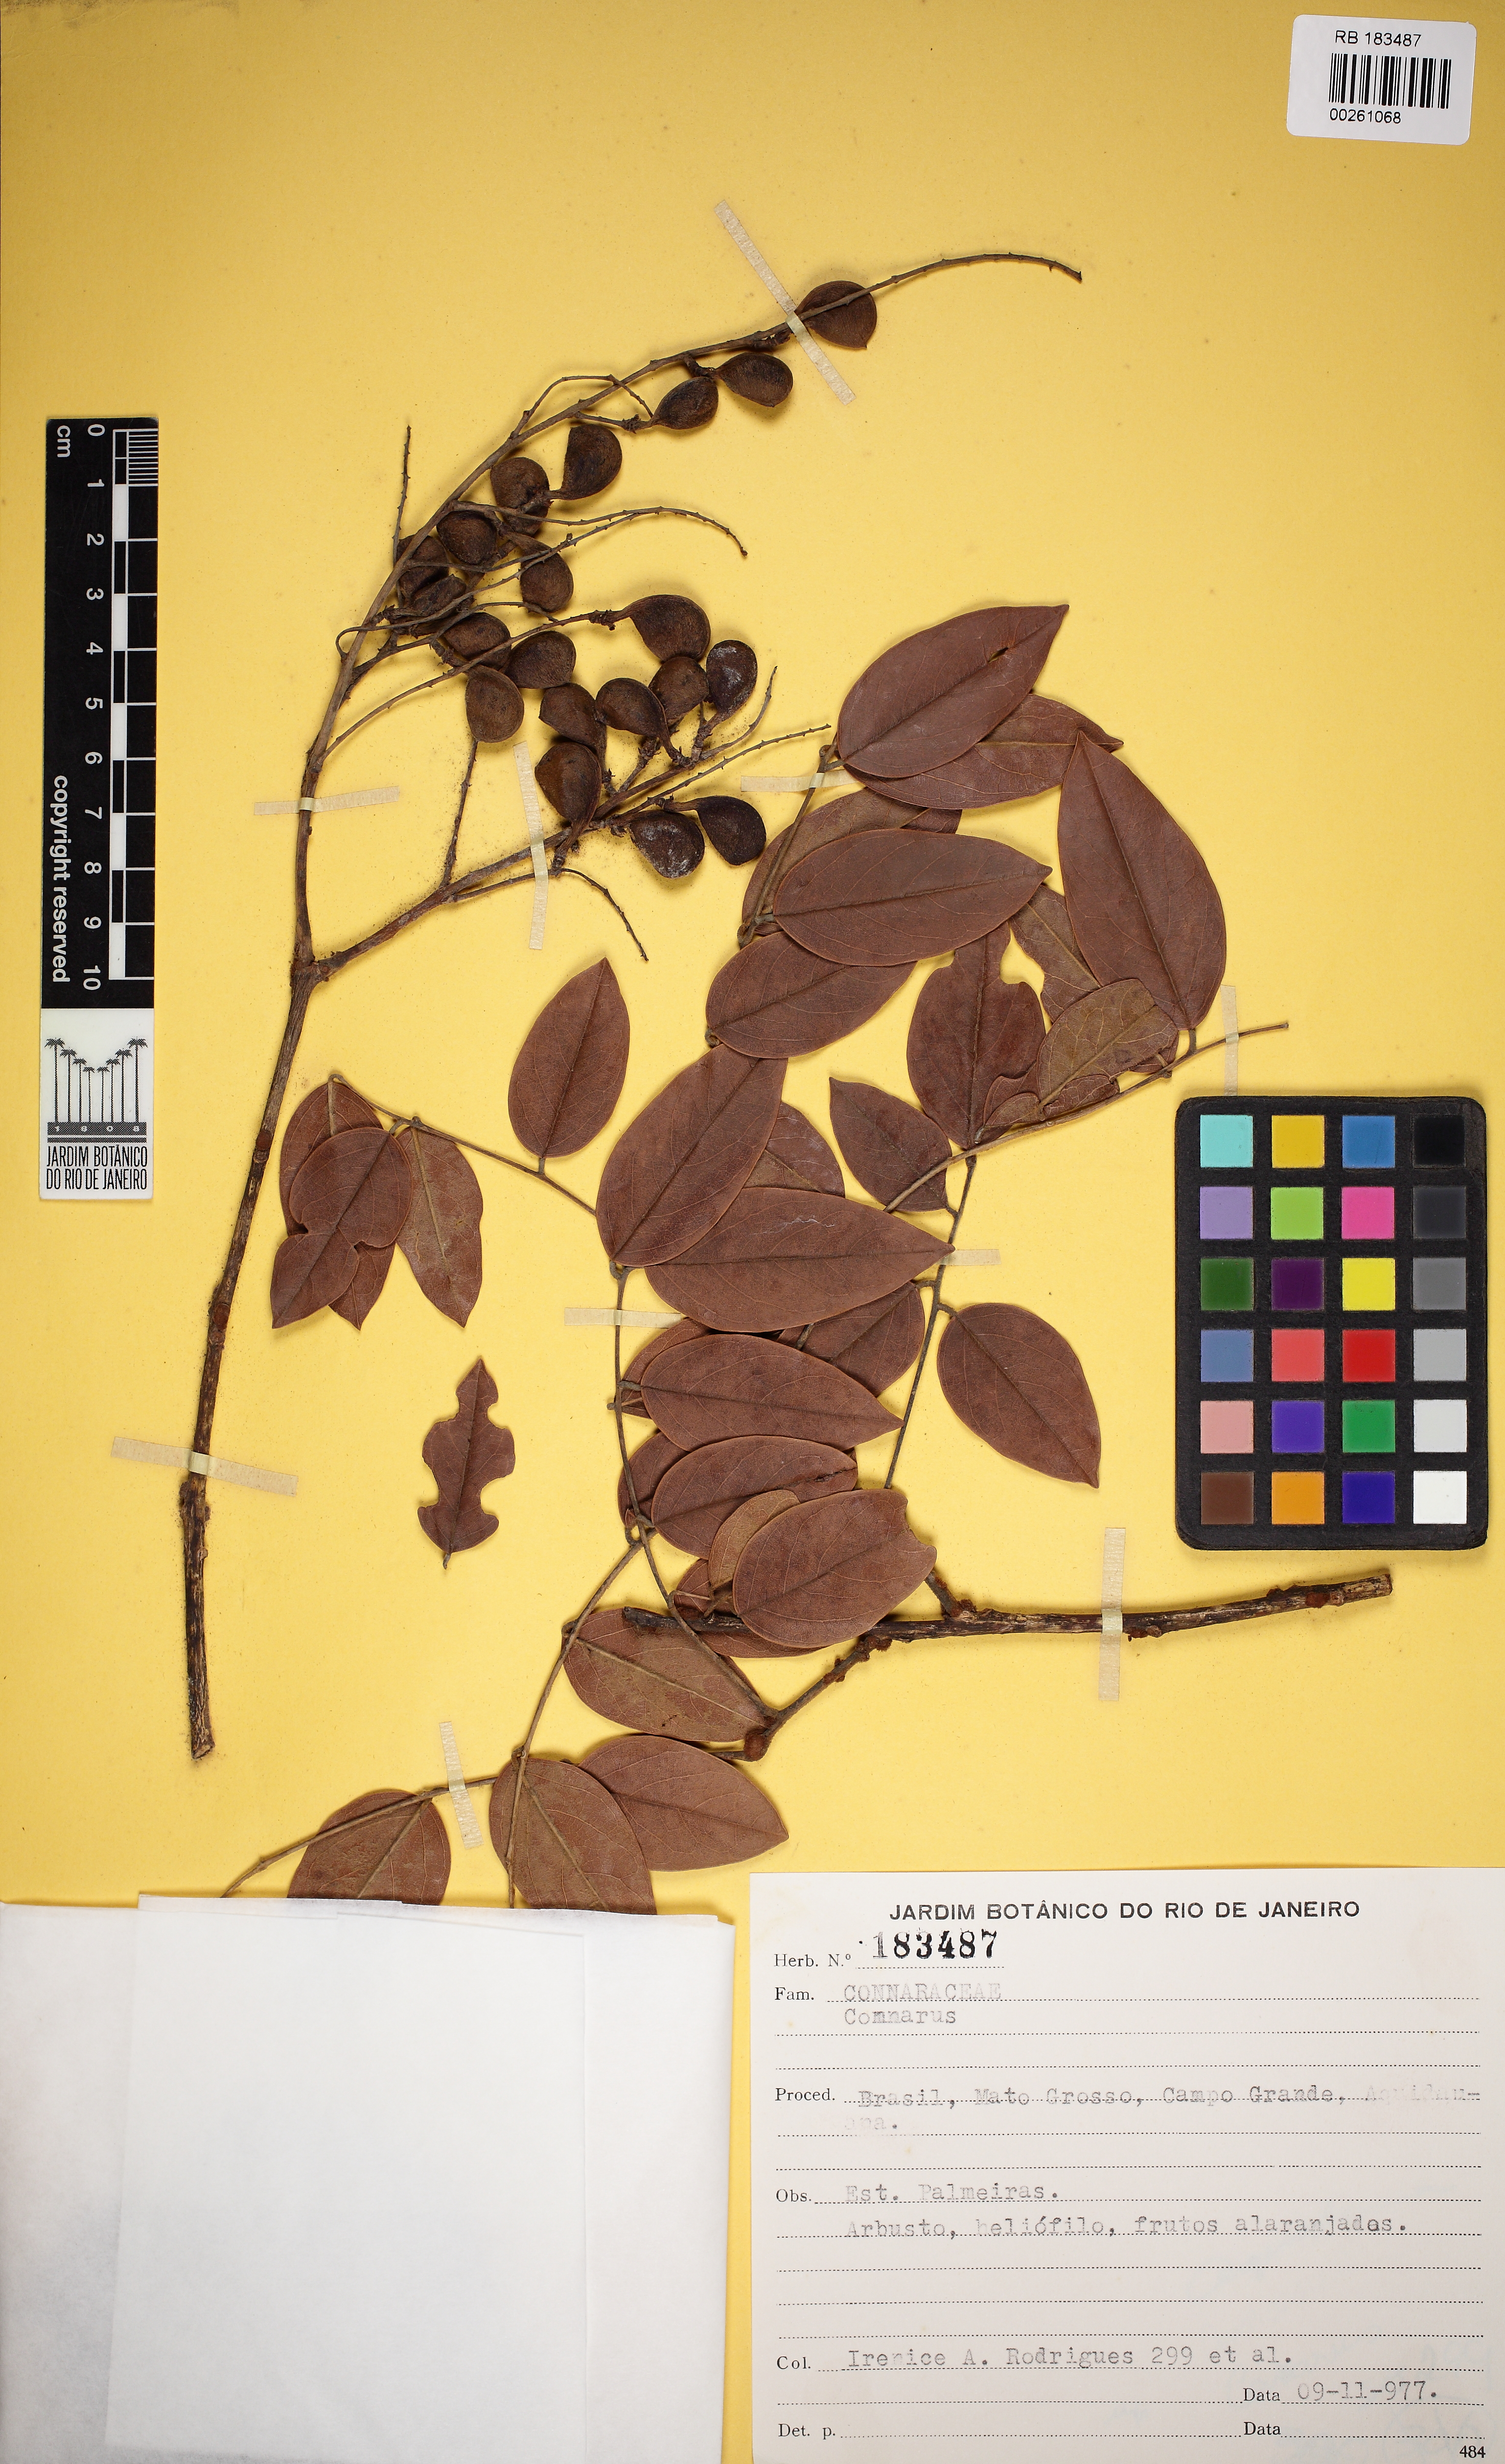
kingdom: Plantae
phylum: Tracheophyta
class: Magnoliopsida
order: Oxalidales
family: Connaraceae
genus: Connarus
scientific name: Connarus suberosus
